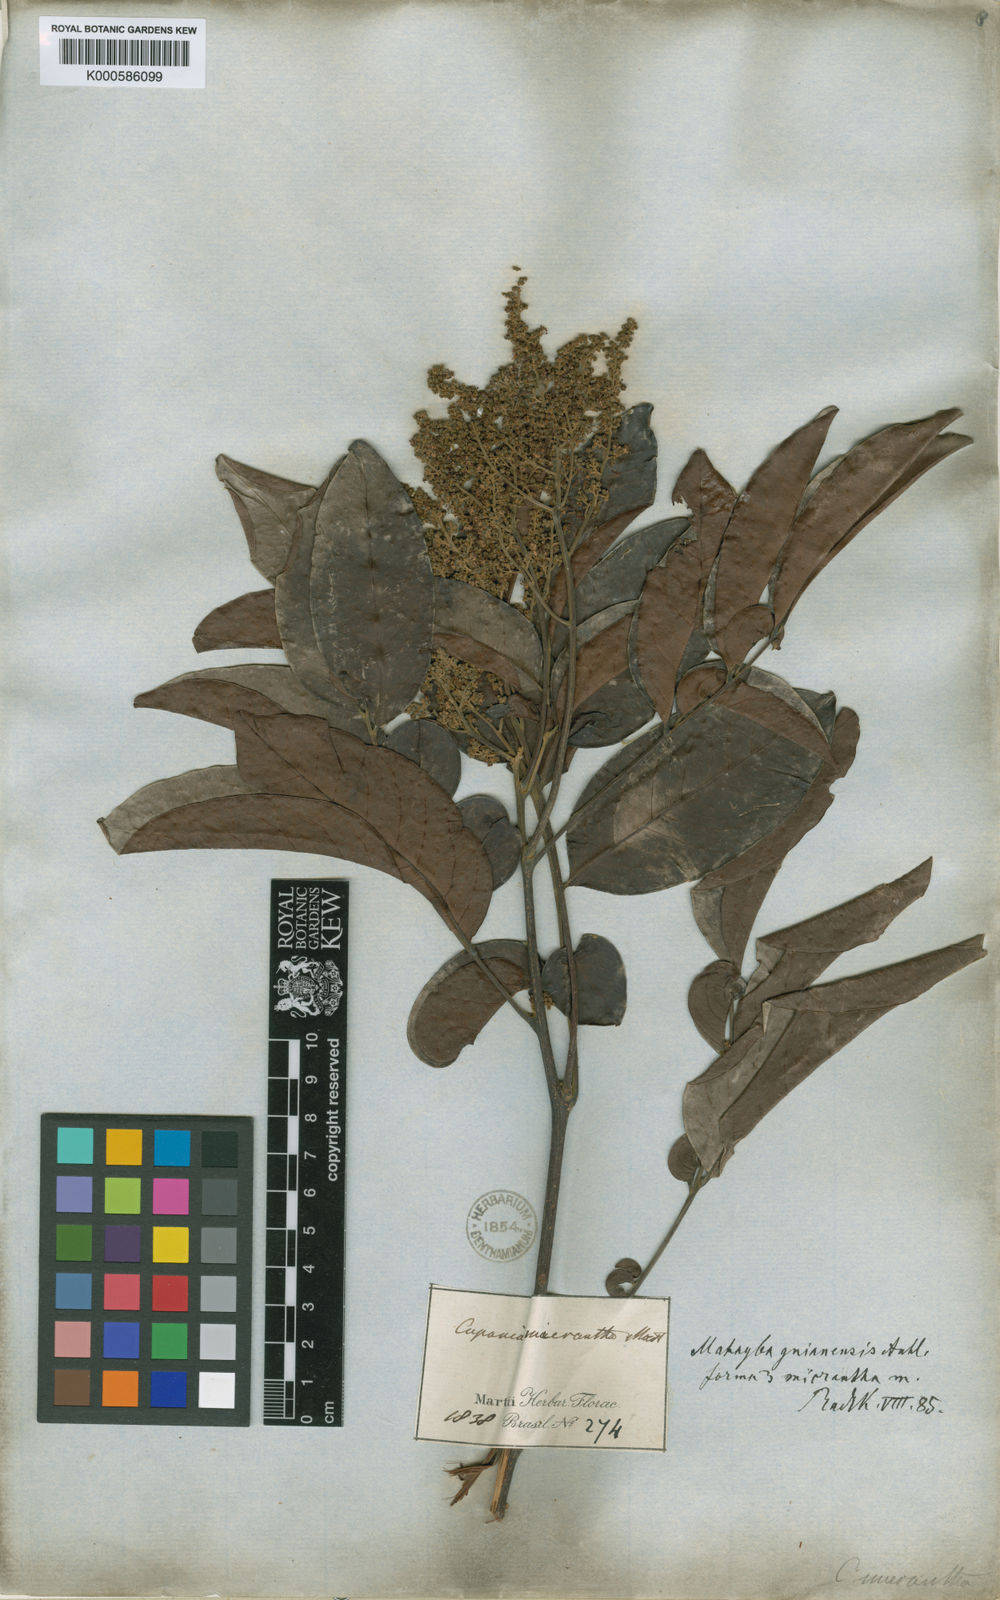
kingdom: Plantae
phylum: Tracheophyta
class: Magnoliopsida
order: Sapindales
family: Sapindaceae
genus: Matayba
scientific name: Matayba guianensis
